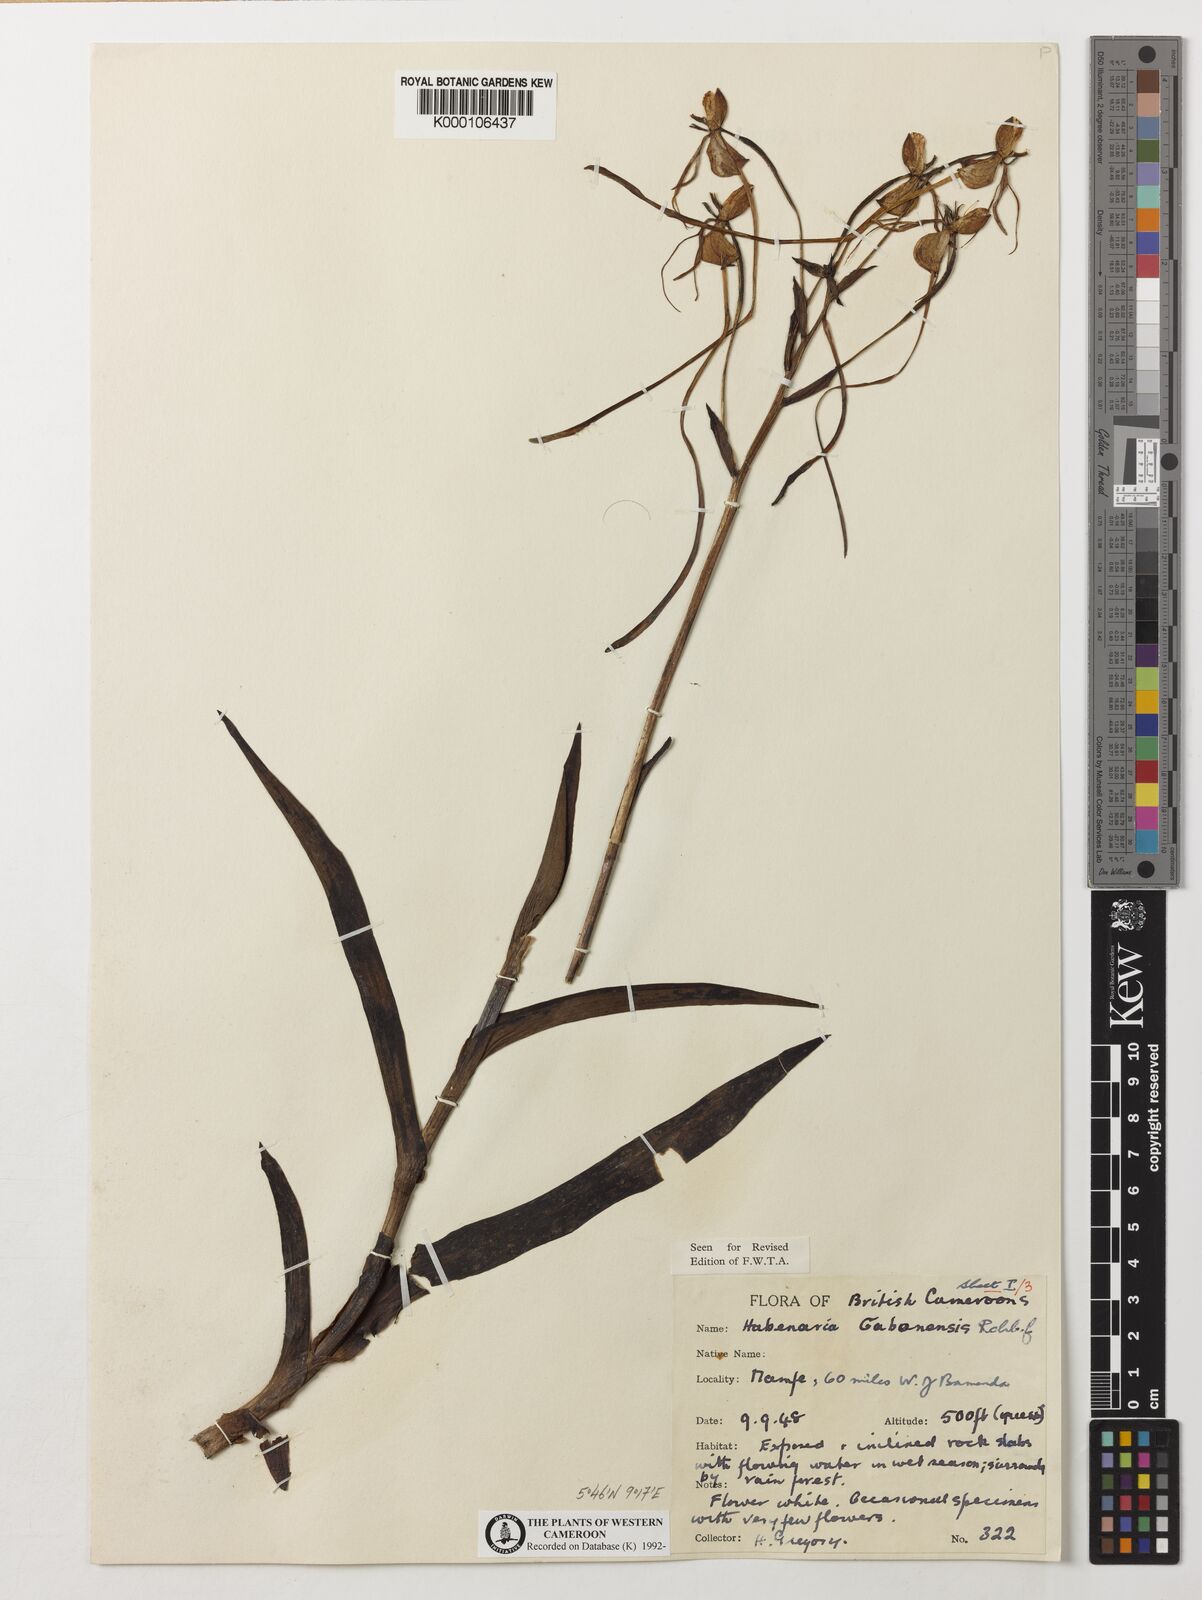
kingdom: Plantae
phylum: Tracheophyta
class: Liliopsida
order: Asparagales
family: Orchidaceae
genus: Habenaria
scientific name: Habenaria procera
